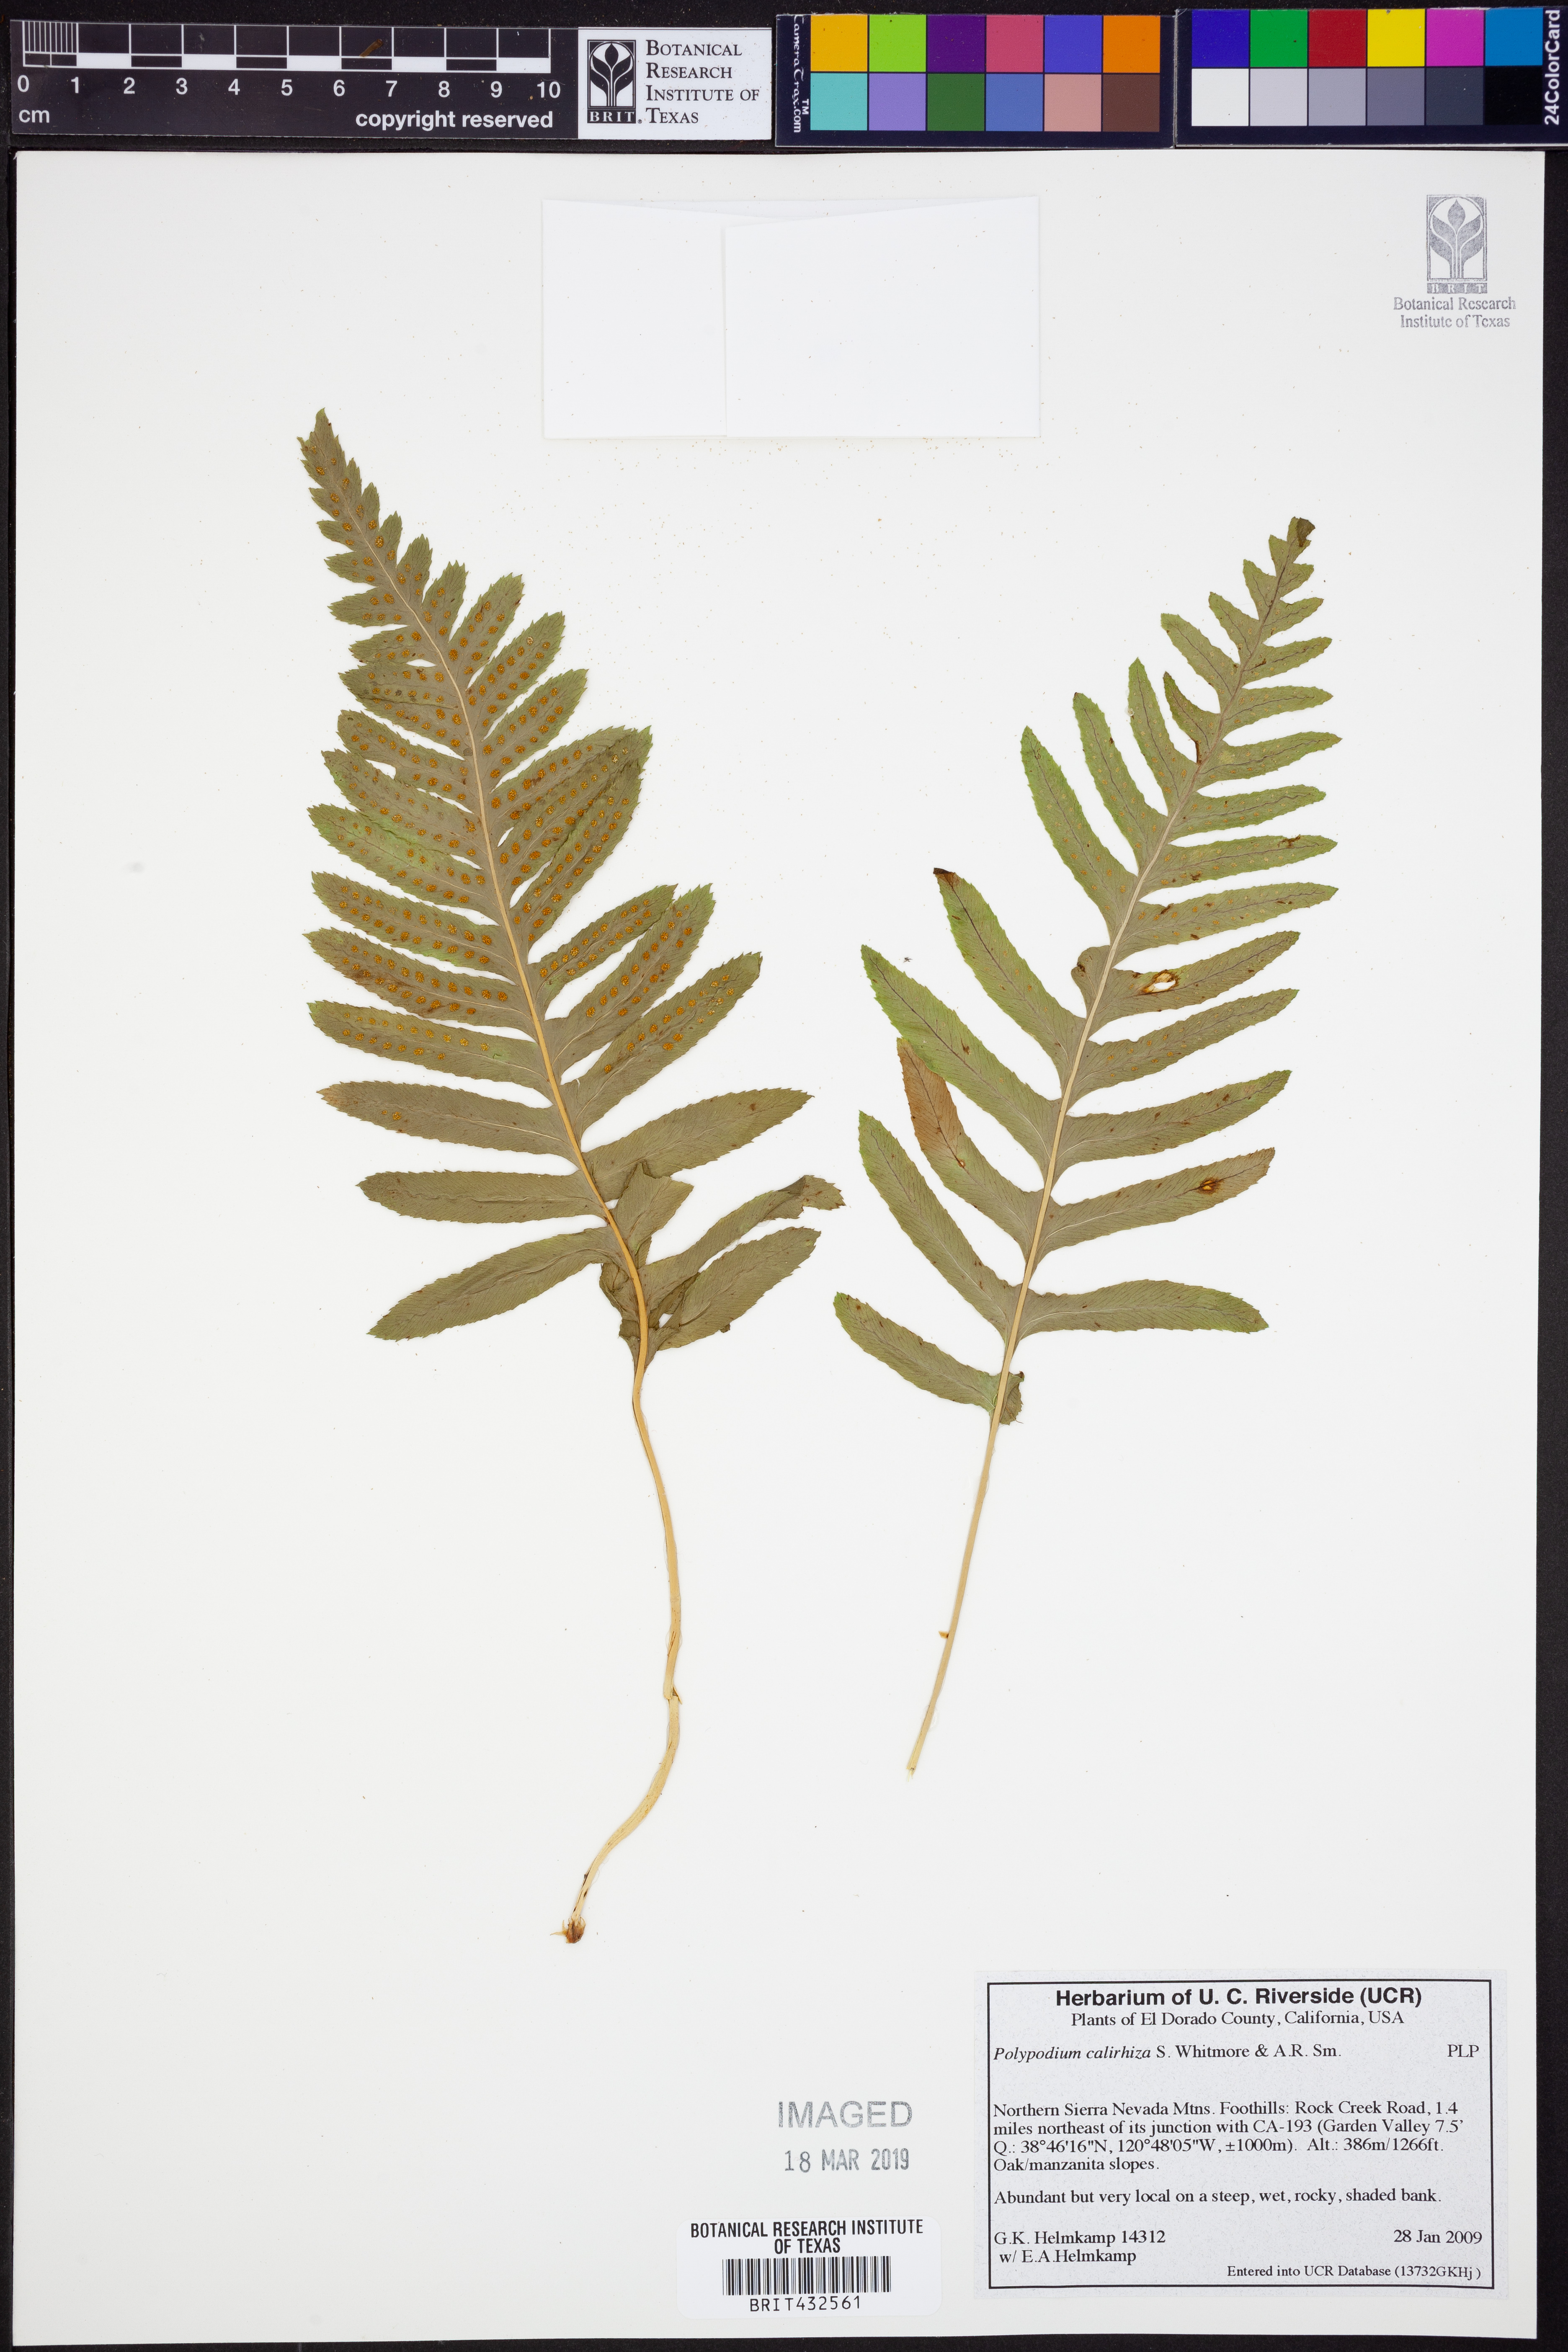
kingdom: Plantae
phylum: Tracheophyta
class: Polypodiopsida
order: Polypodiales
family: Polypodiaceae
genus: Polypodium
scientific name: Polypodium calirhiza
